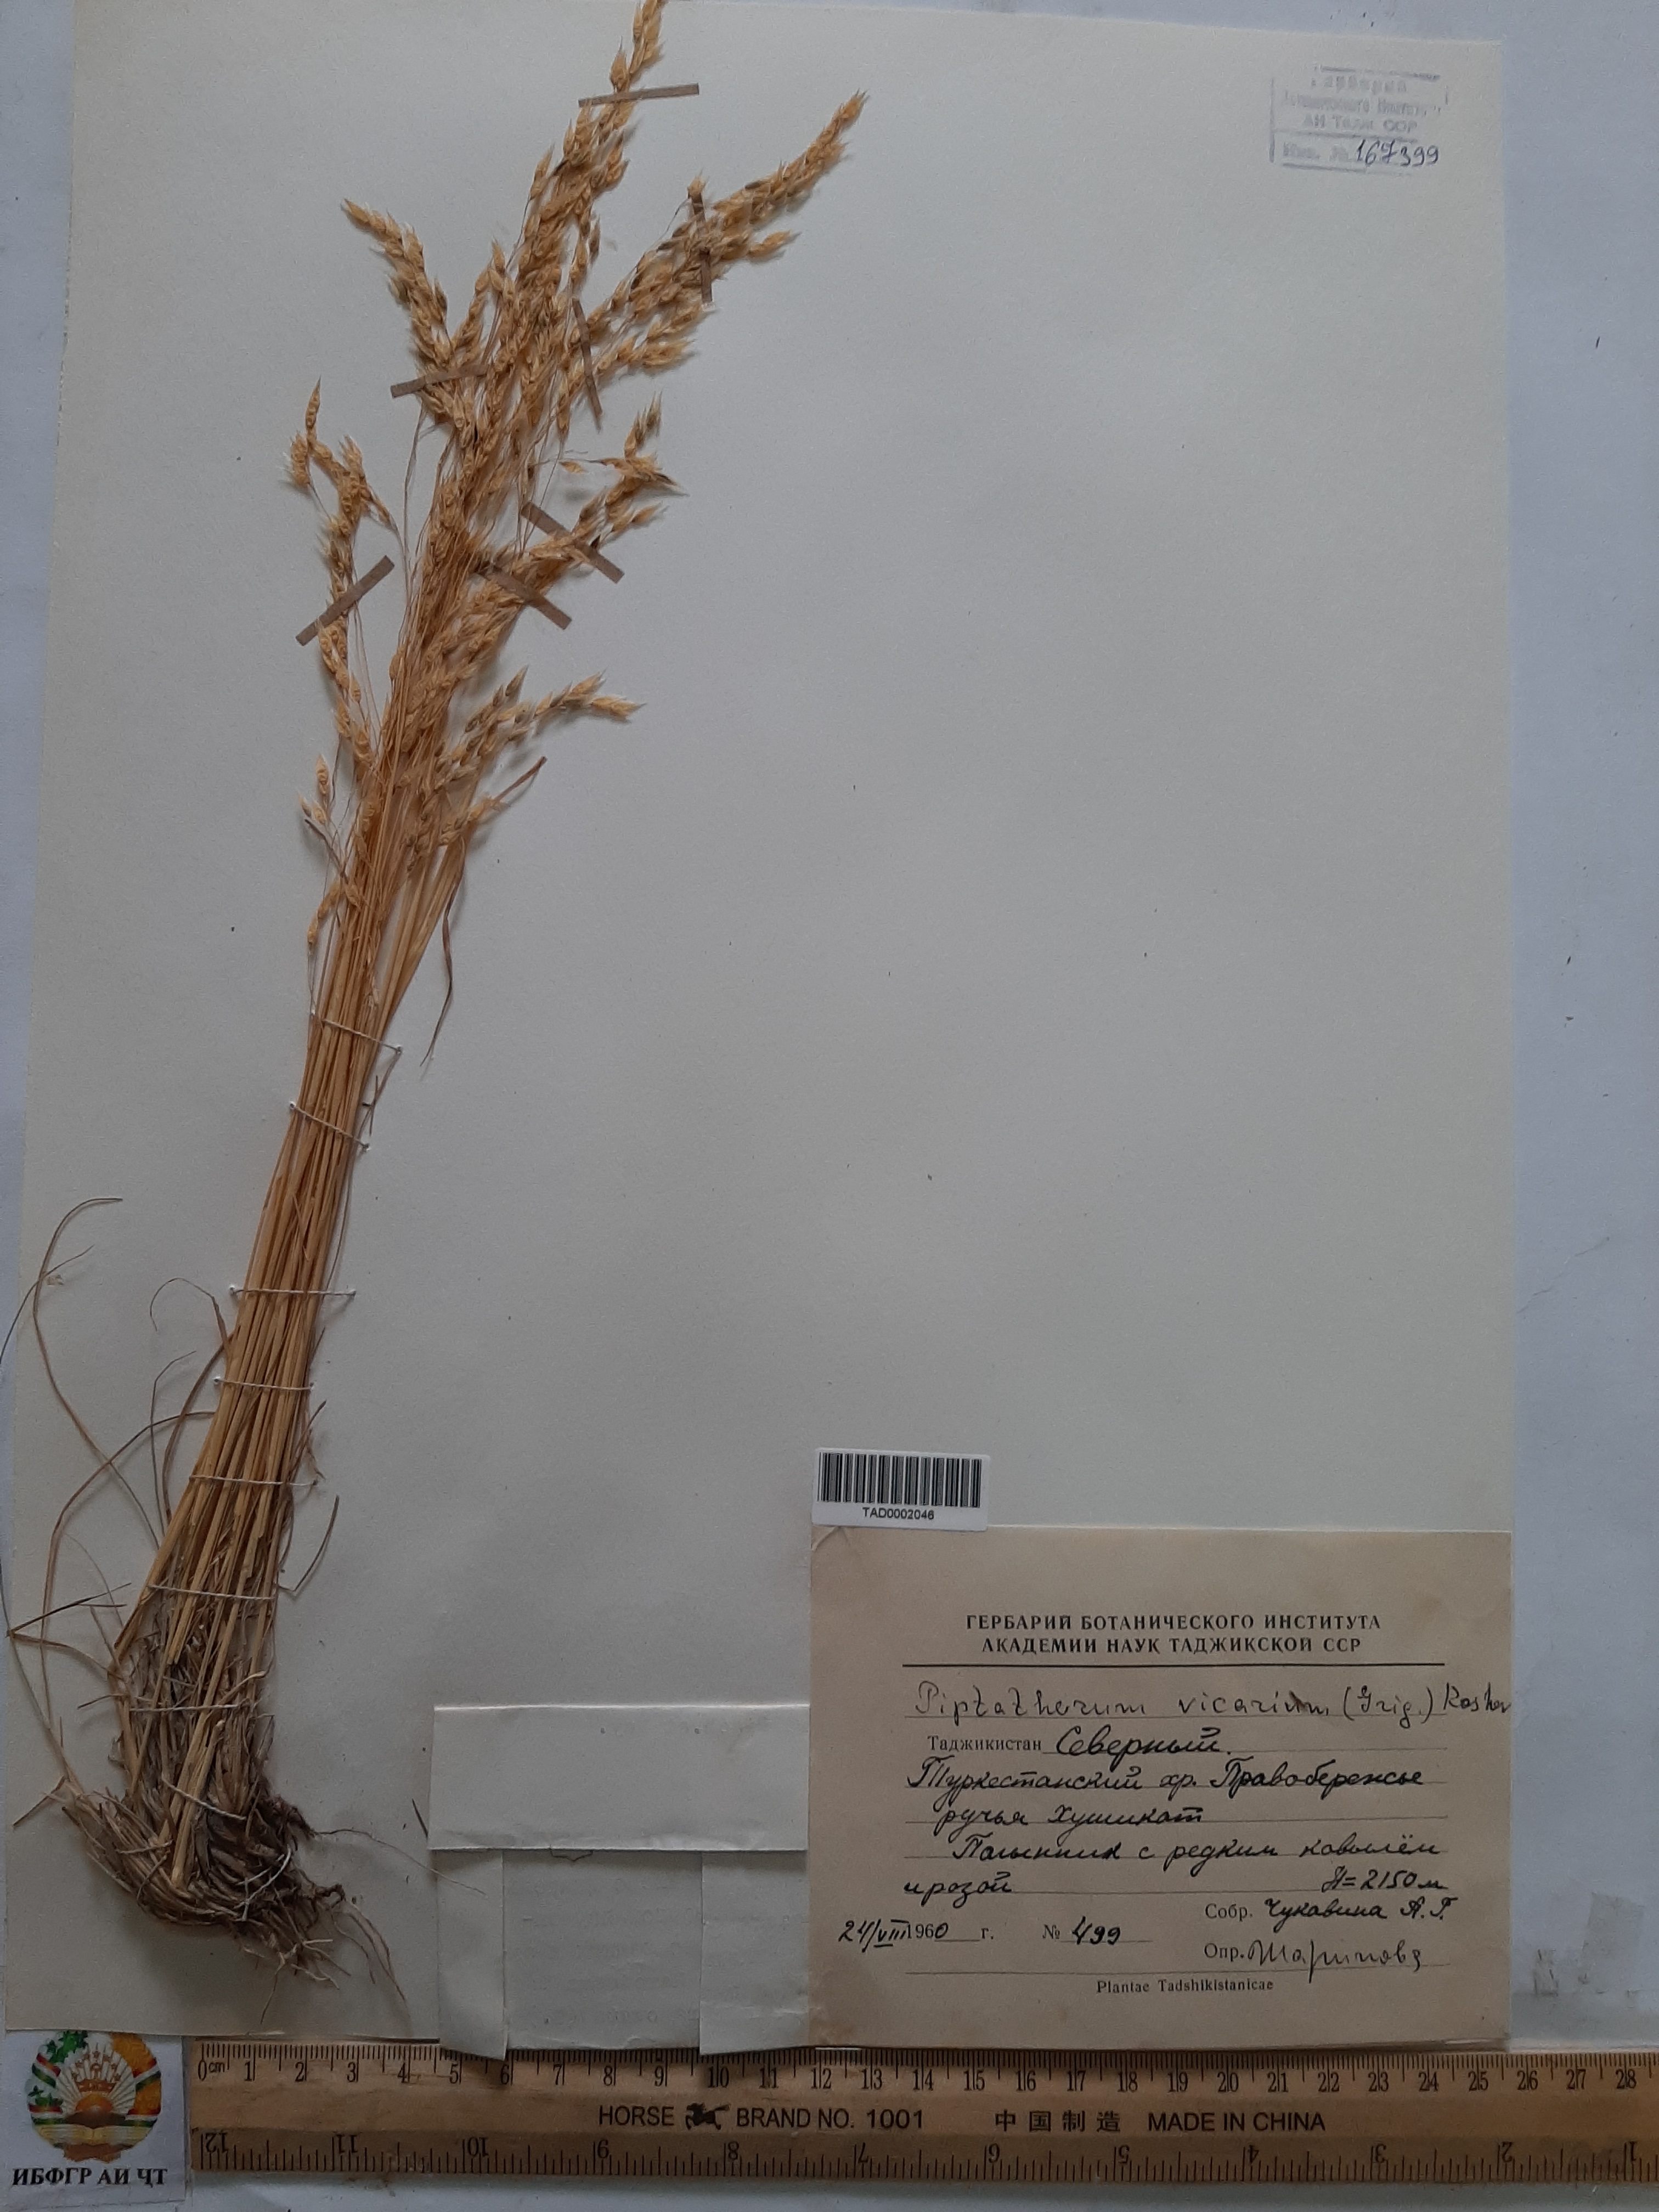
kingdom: Plantae
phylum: Tracheophyta
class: Liliopsida
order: Poales
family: Poaceae
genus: Piptatherum
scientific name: Piptatherum sogdianum
